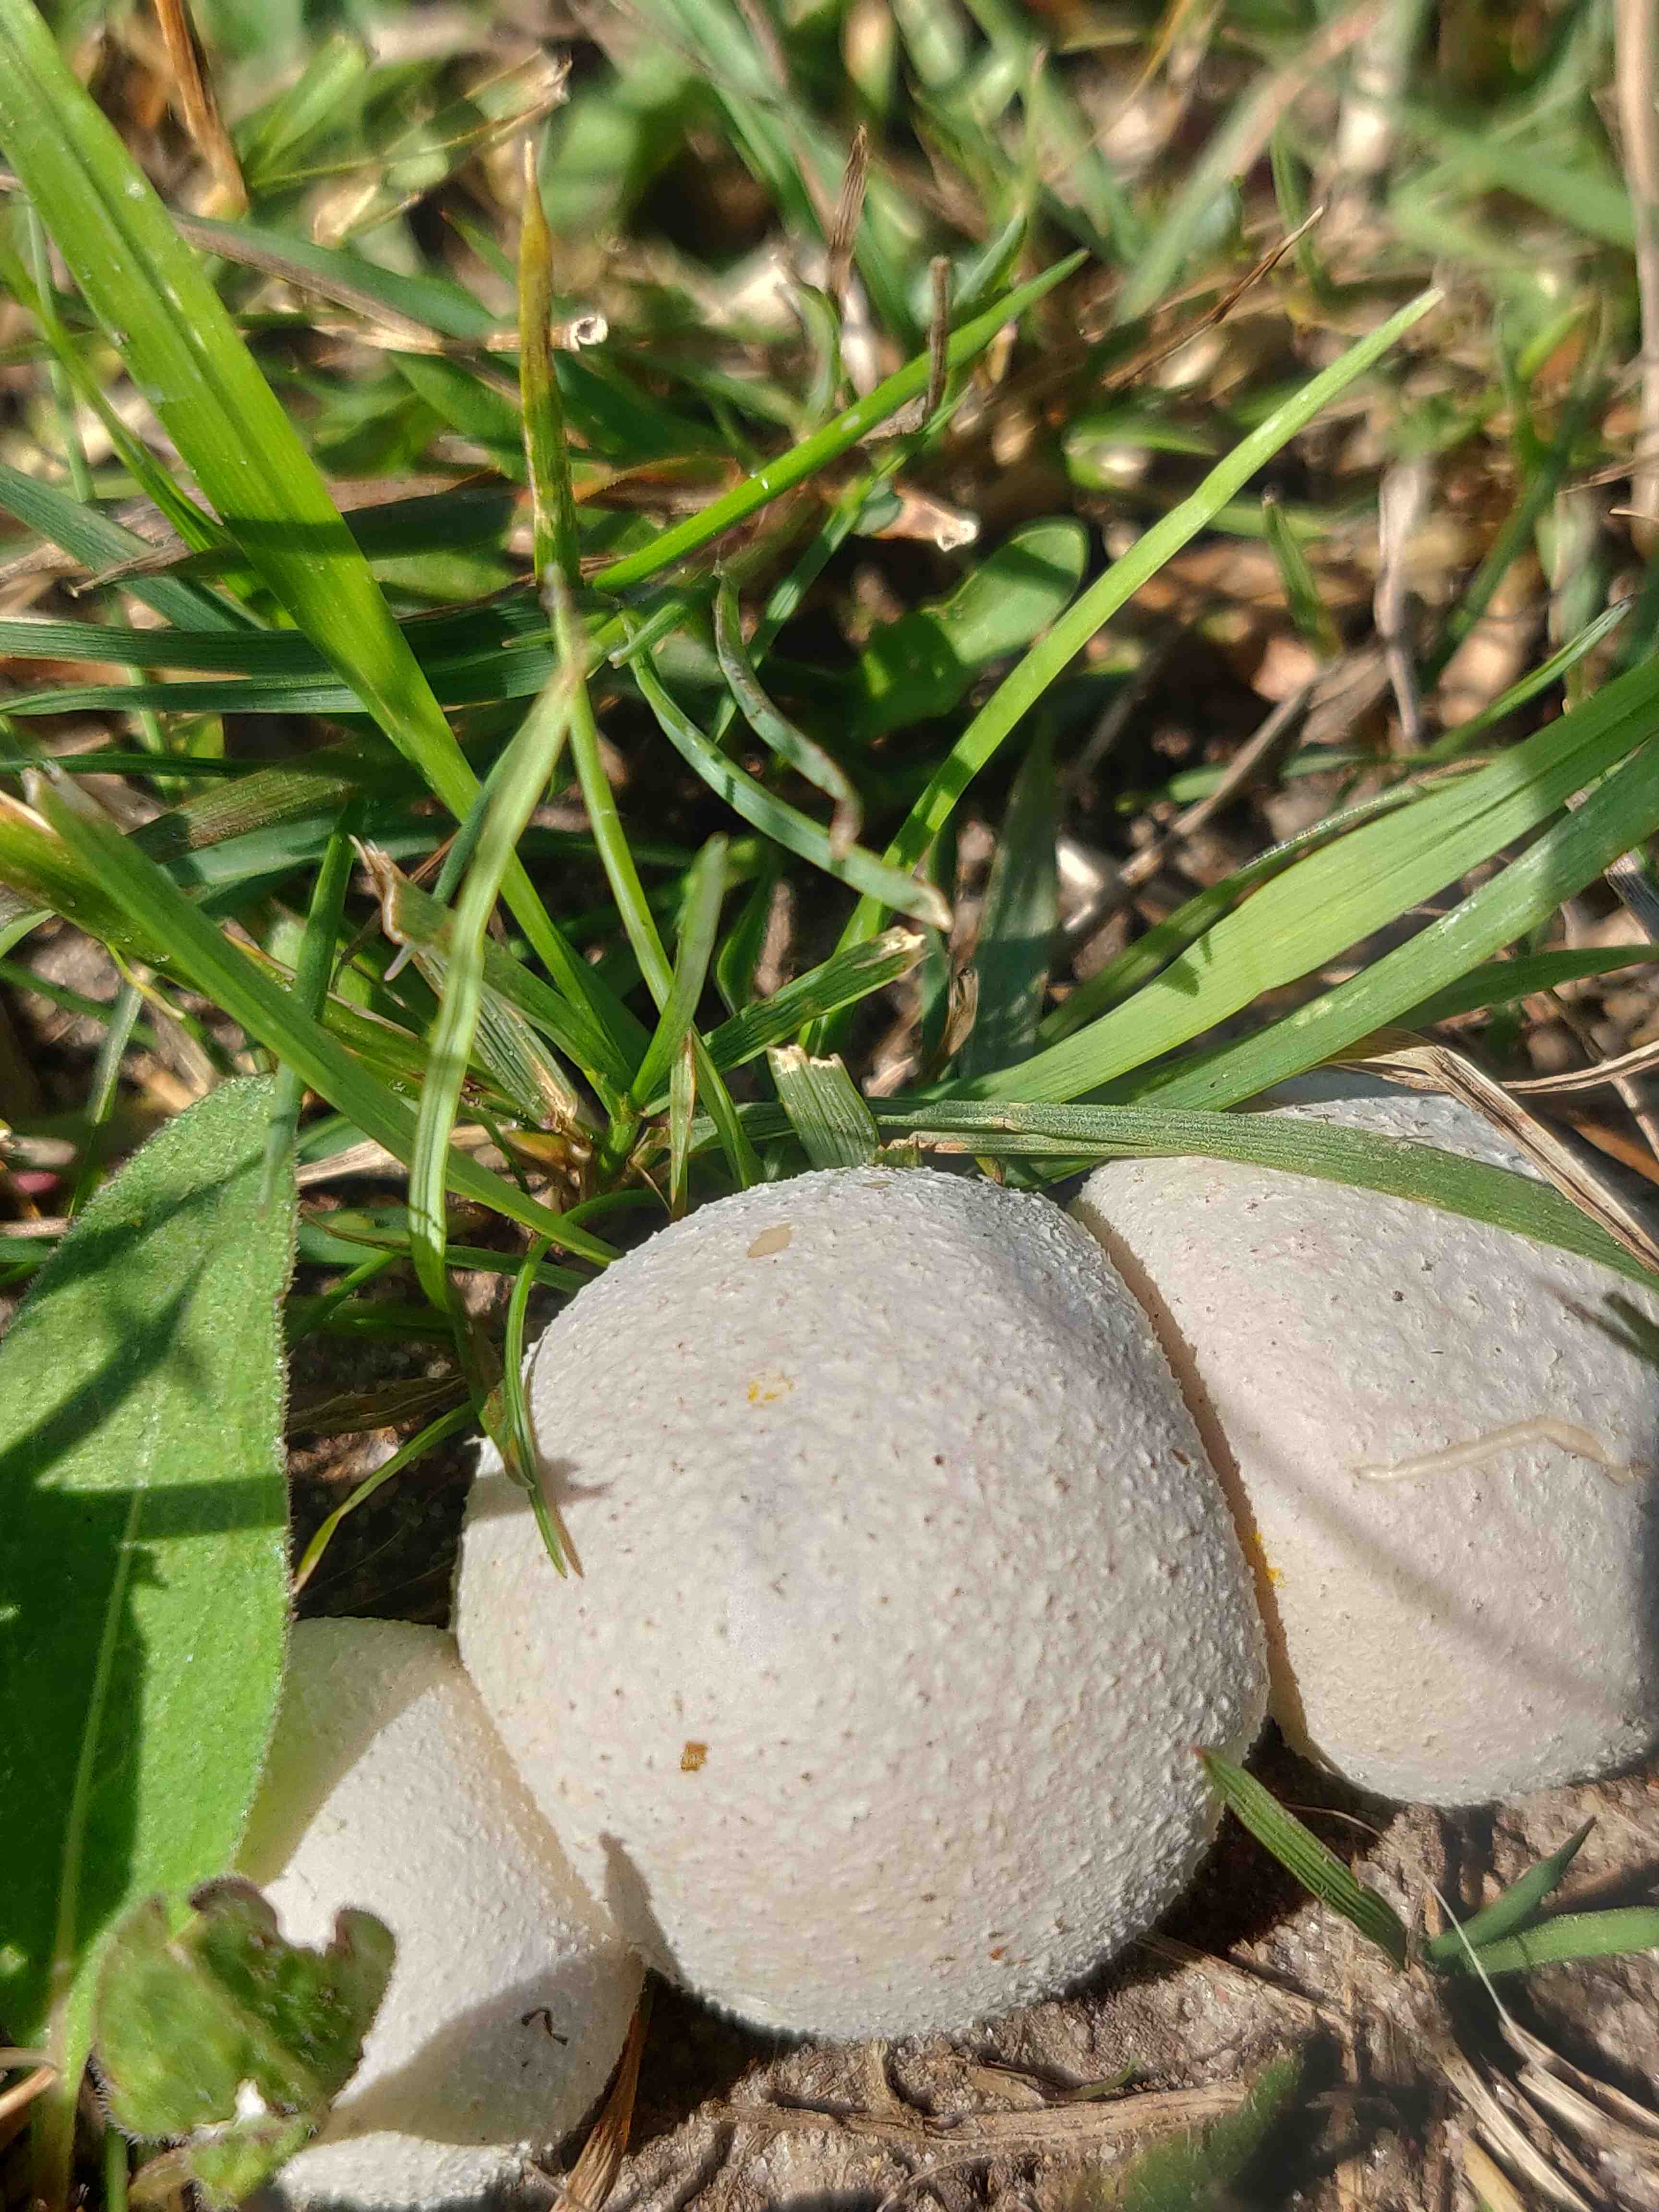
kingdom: Fungi
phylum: Basidiomycota
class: Agaricomycetes
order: Agaricales
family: Agaricaceae
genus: Lycoperdon
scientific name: Lycoperdon
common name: støvbold
